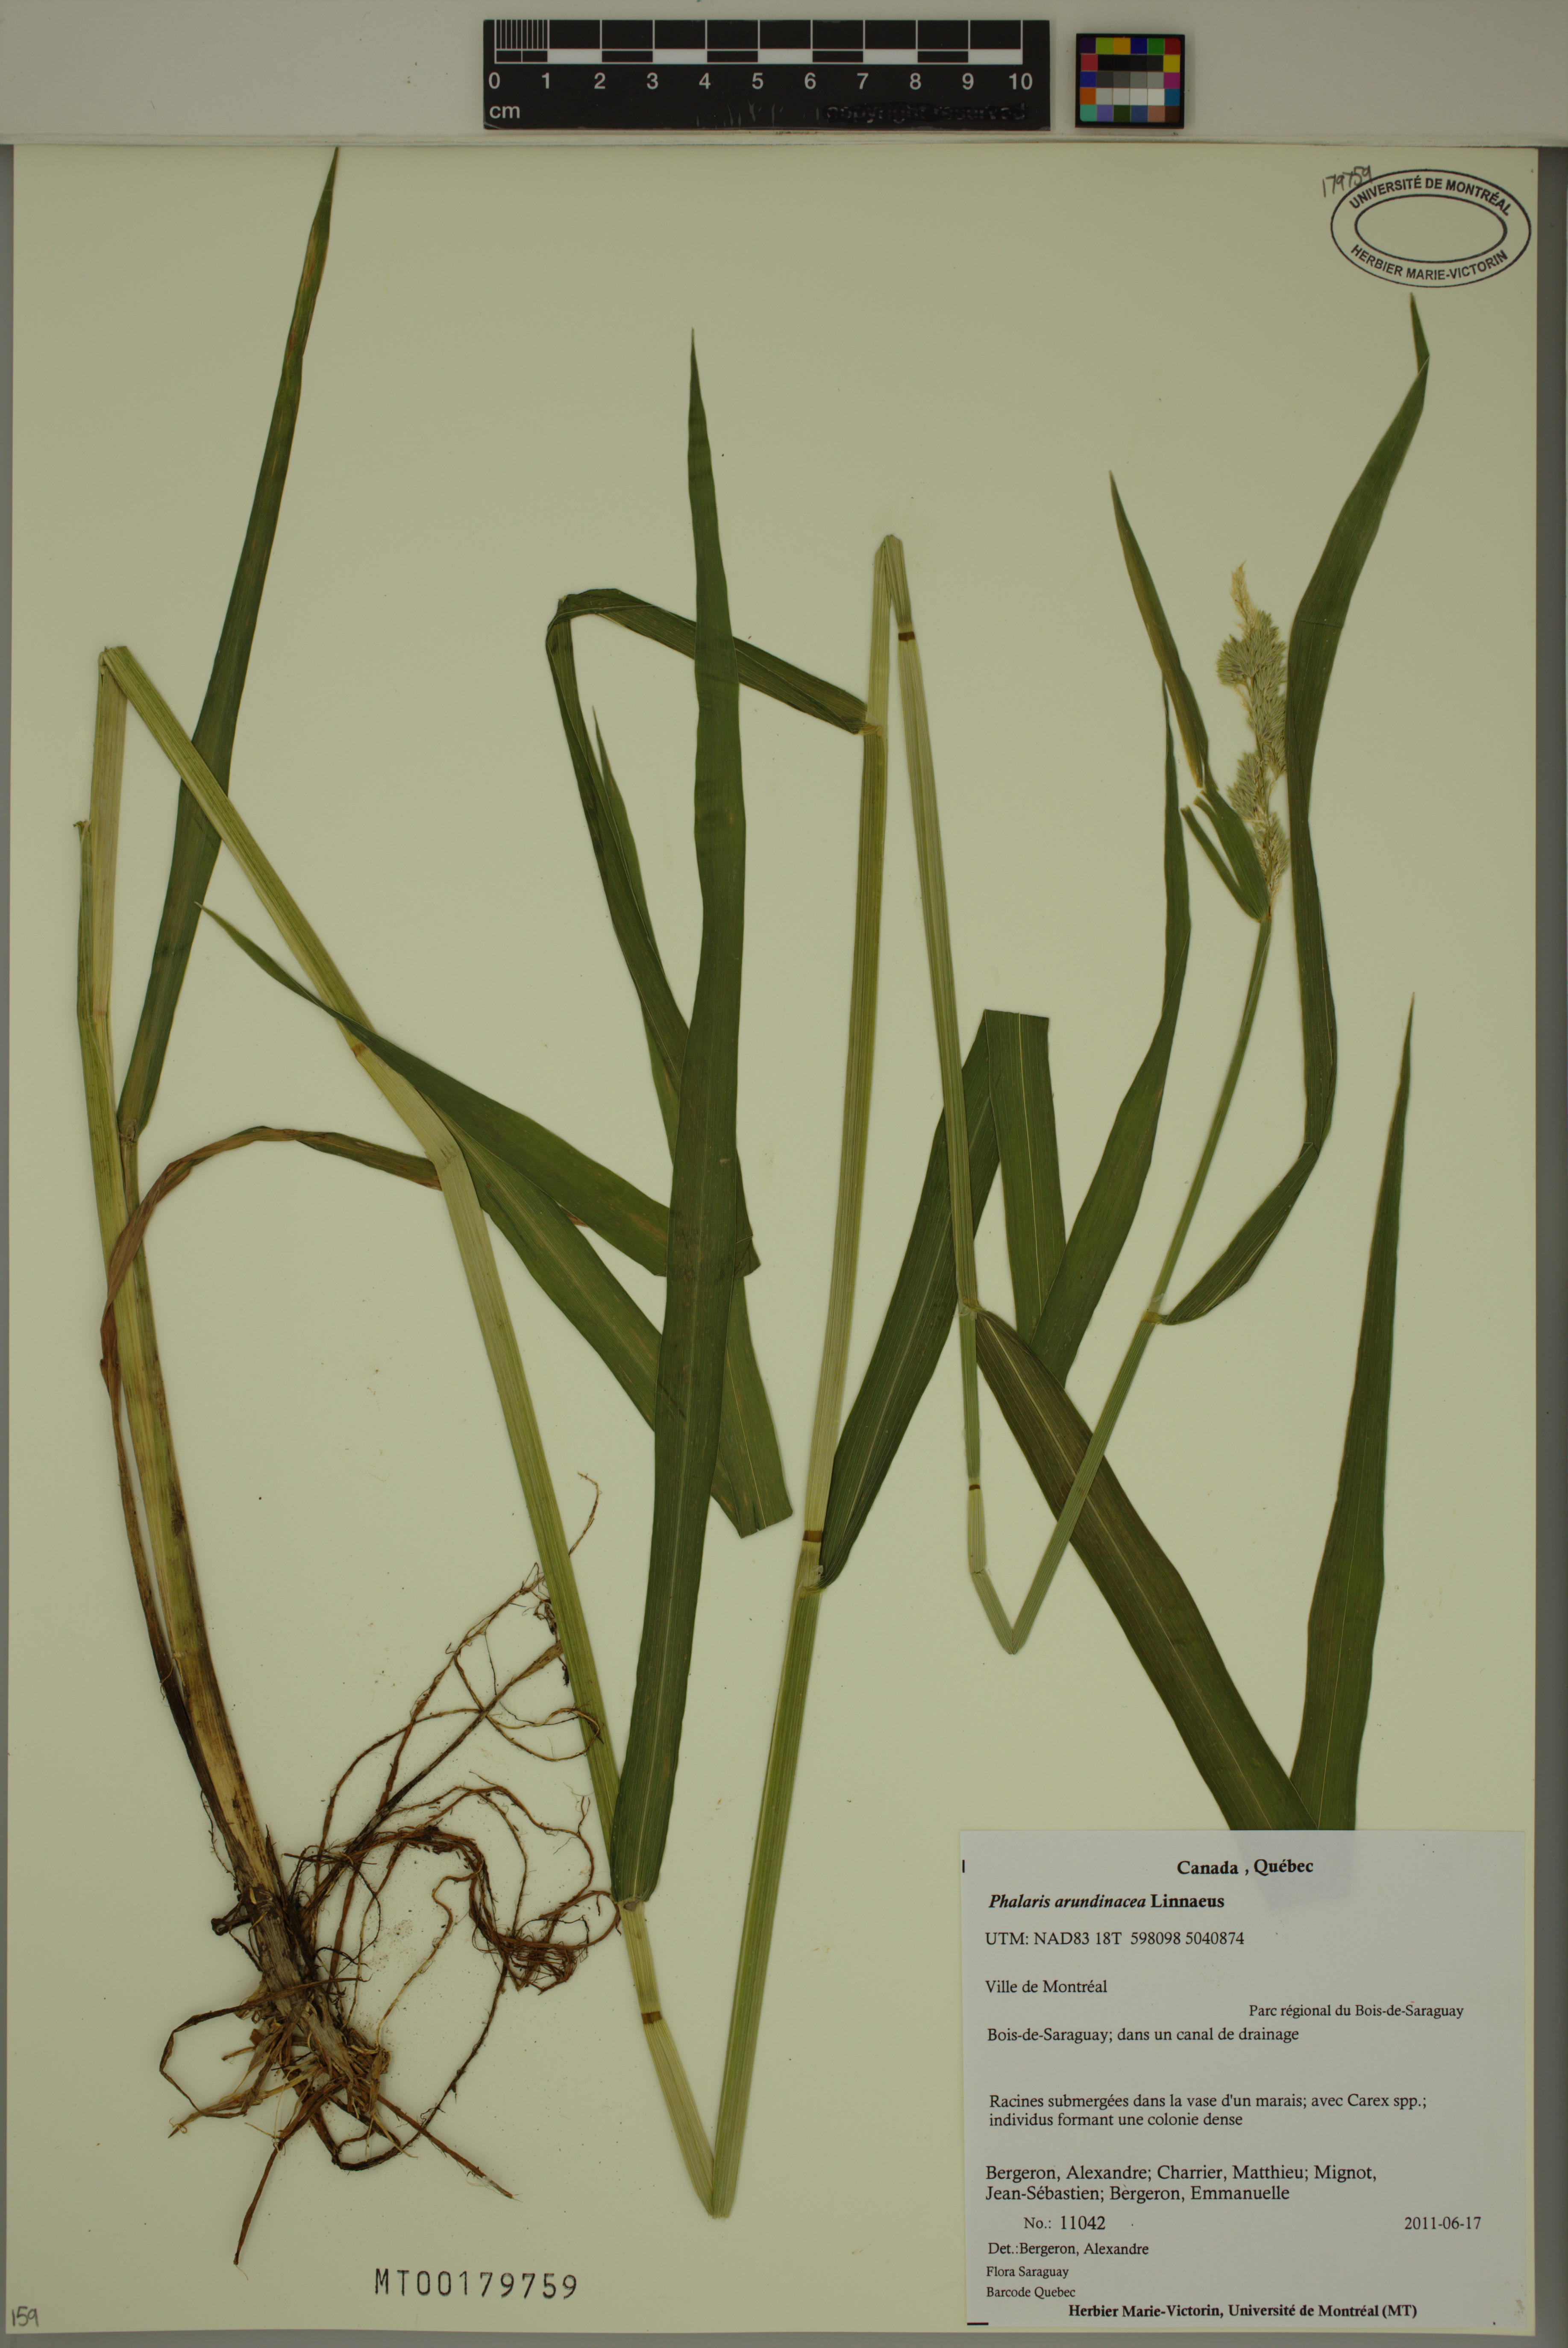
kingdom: Plantae
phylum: Tracheophyta
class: Liliopsida
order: Poales
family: Poaceae
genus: Phalaris
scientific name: Phalaris arundinacea
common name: Reed canary-grass
